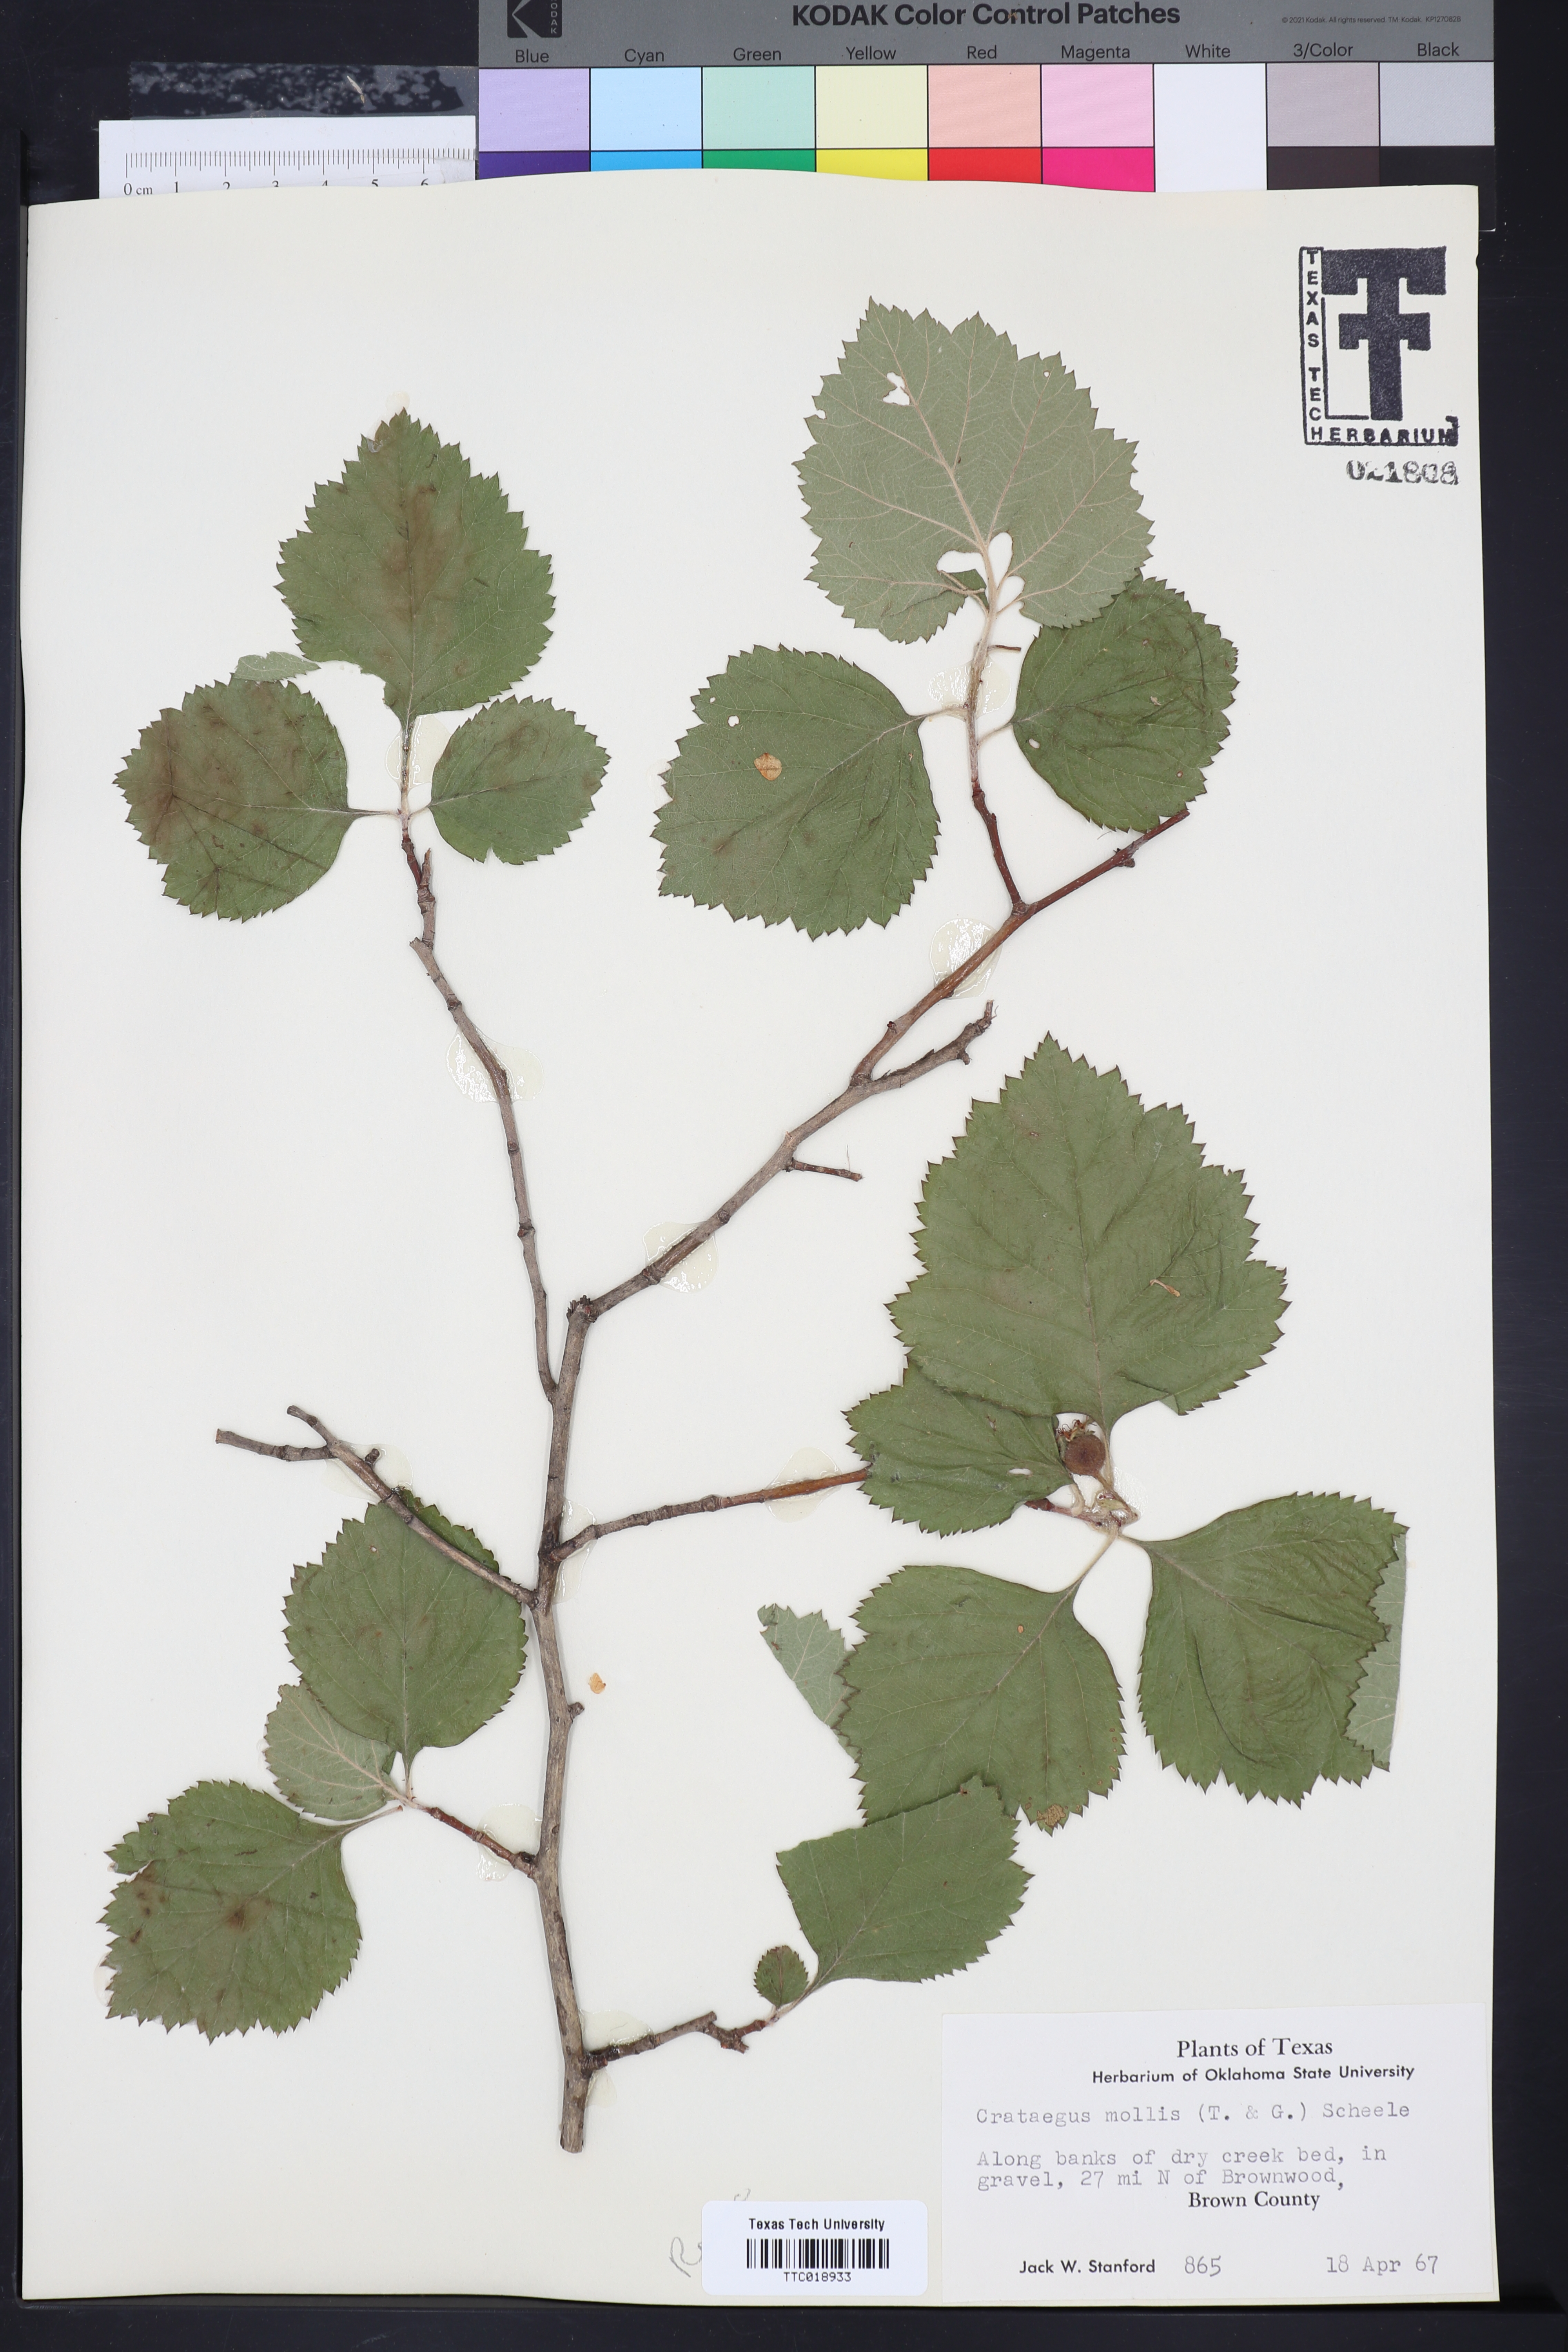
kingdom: Plantae
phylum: Tracheophyta
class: Magnoliopsida
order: Rosales
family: Rosaceae
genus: Crataegus
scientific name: Crataegus mollis
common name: Downy hawthorn
